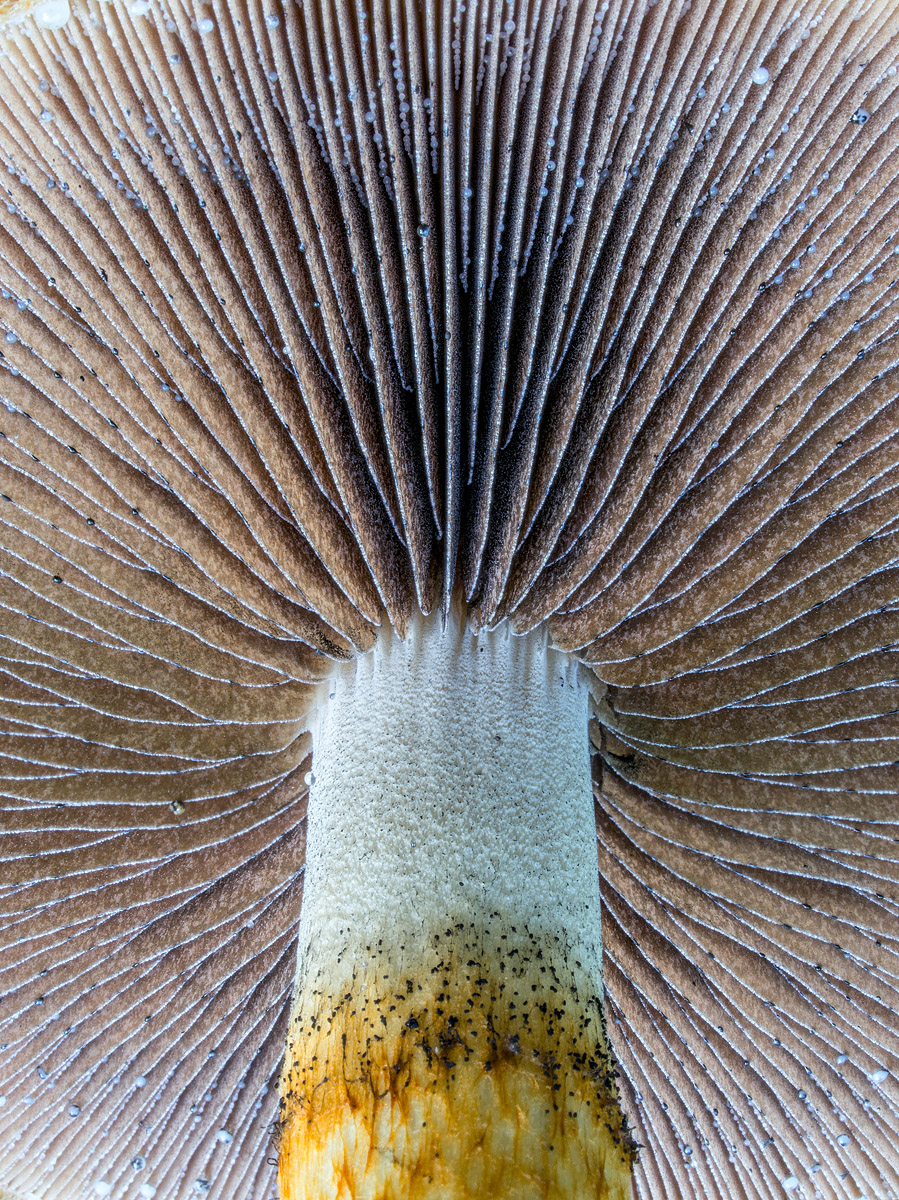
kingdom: Fungi
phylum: Basidiomycota
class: Agaricomycetes
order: Agaricales
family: Psathyrellaceae
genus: Lacrymaria
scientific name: Lacrymaria pyrotricha
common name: ildhåret mørkhat
